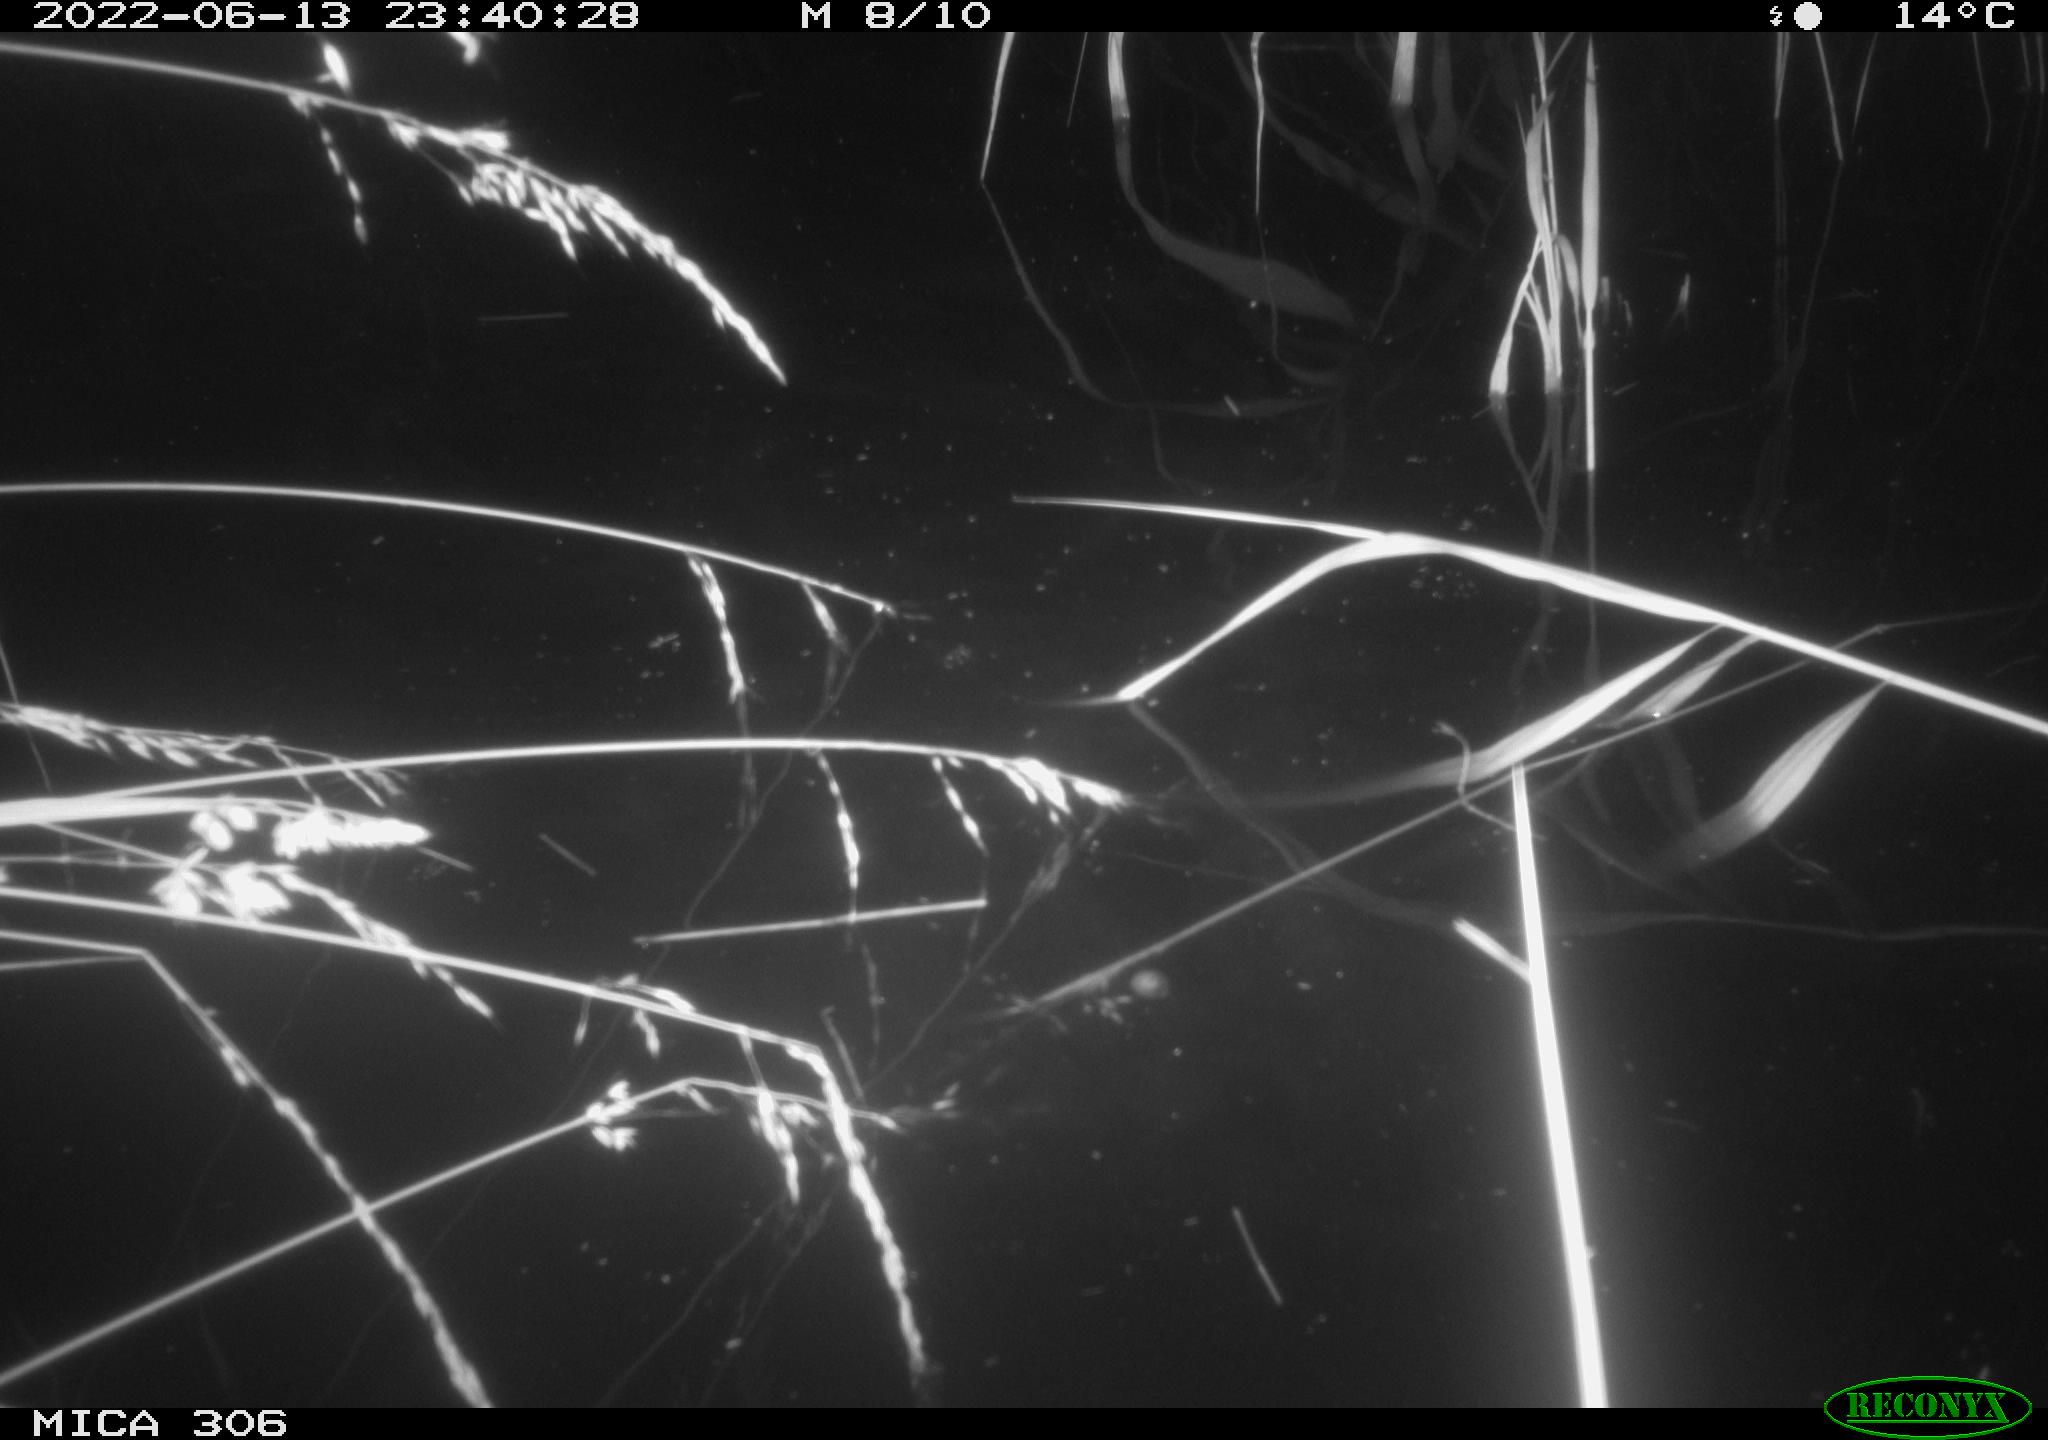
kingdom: Animalia
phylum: Chordata
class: Mammalia
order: Rodentia
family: Cricetidae
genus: Ondatra
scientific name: Ondatra zibethicus
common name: Muskrat
